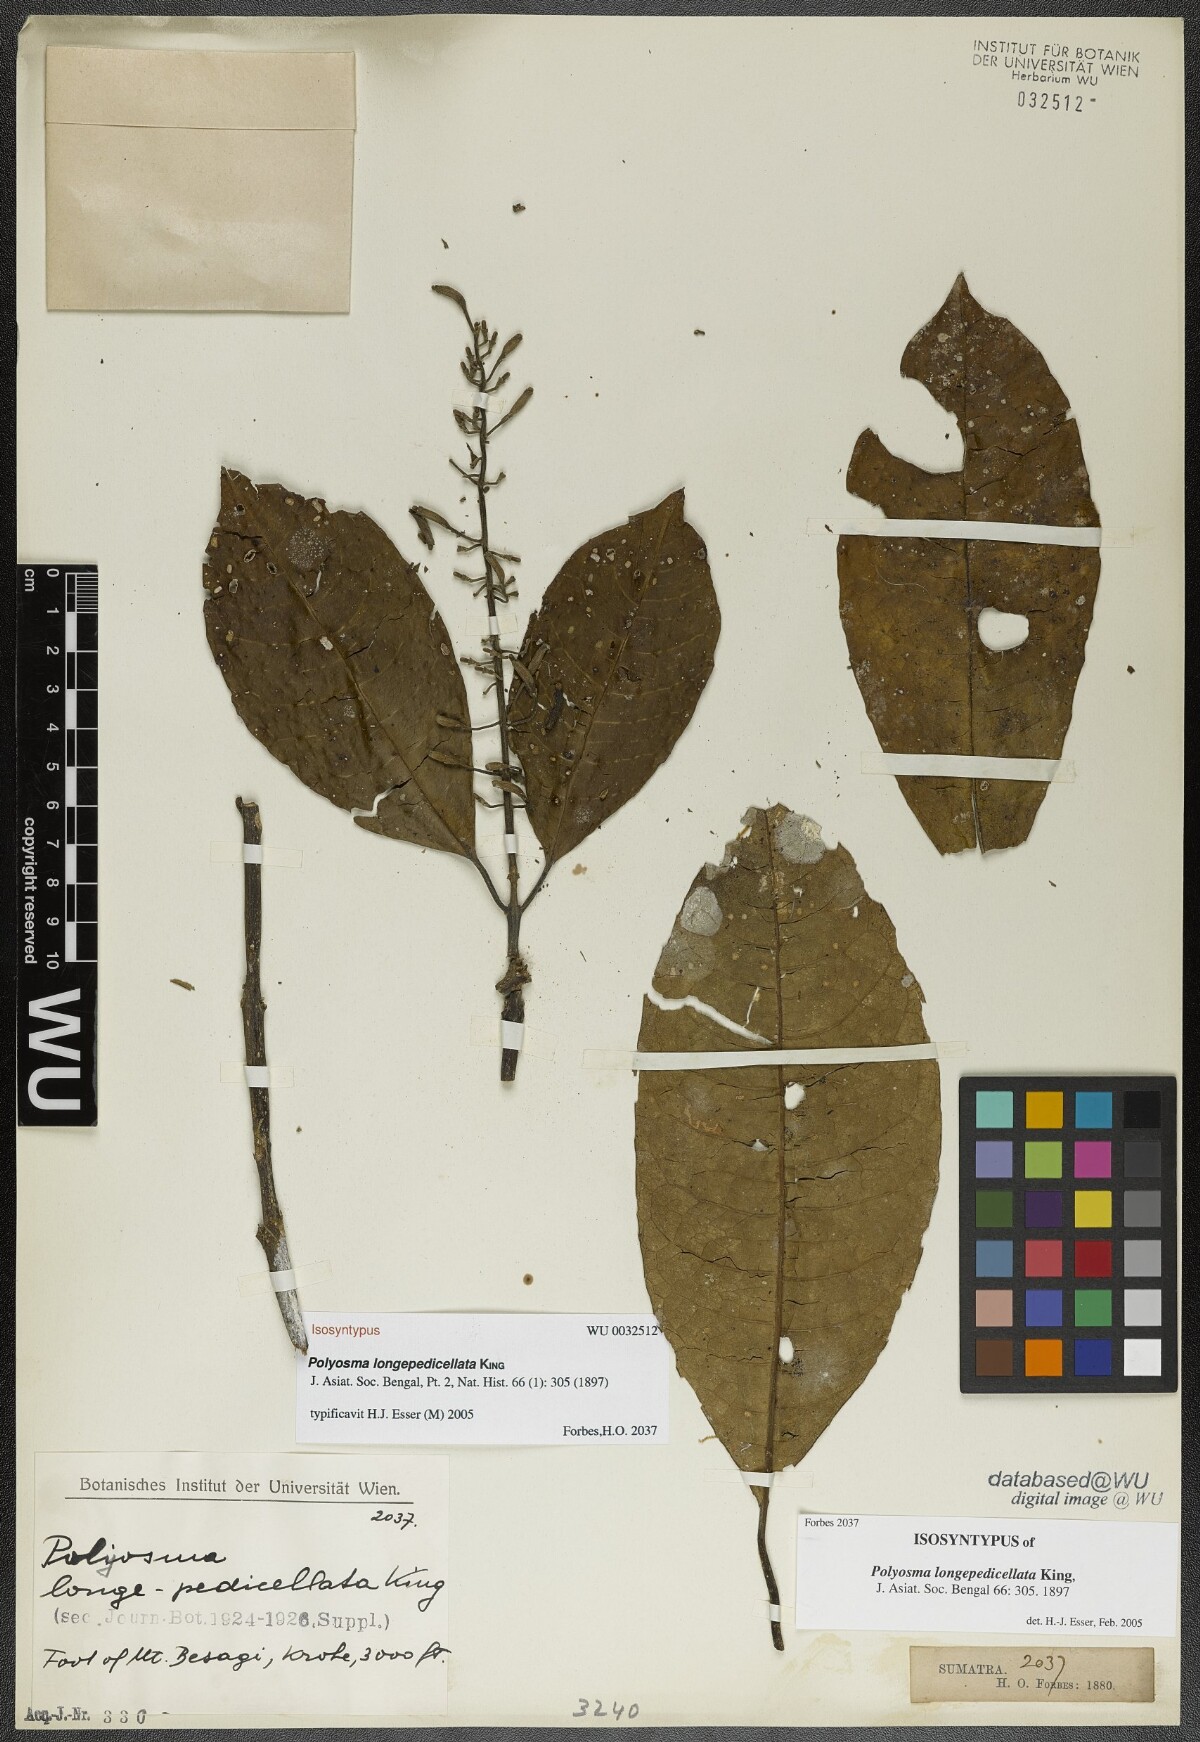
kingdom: Plantae
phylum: Tracheophyta
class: Magnoliopsida
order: Escalloniales
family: Escalloniaceae
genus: Polyosma
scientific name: Polyosma longepedicellata
